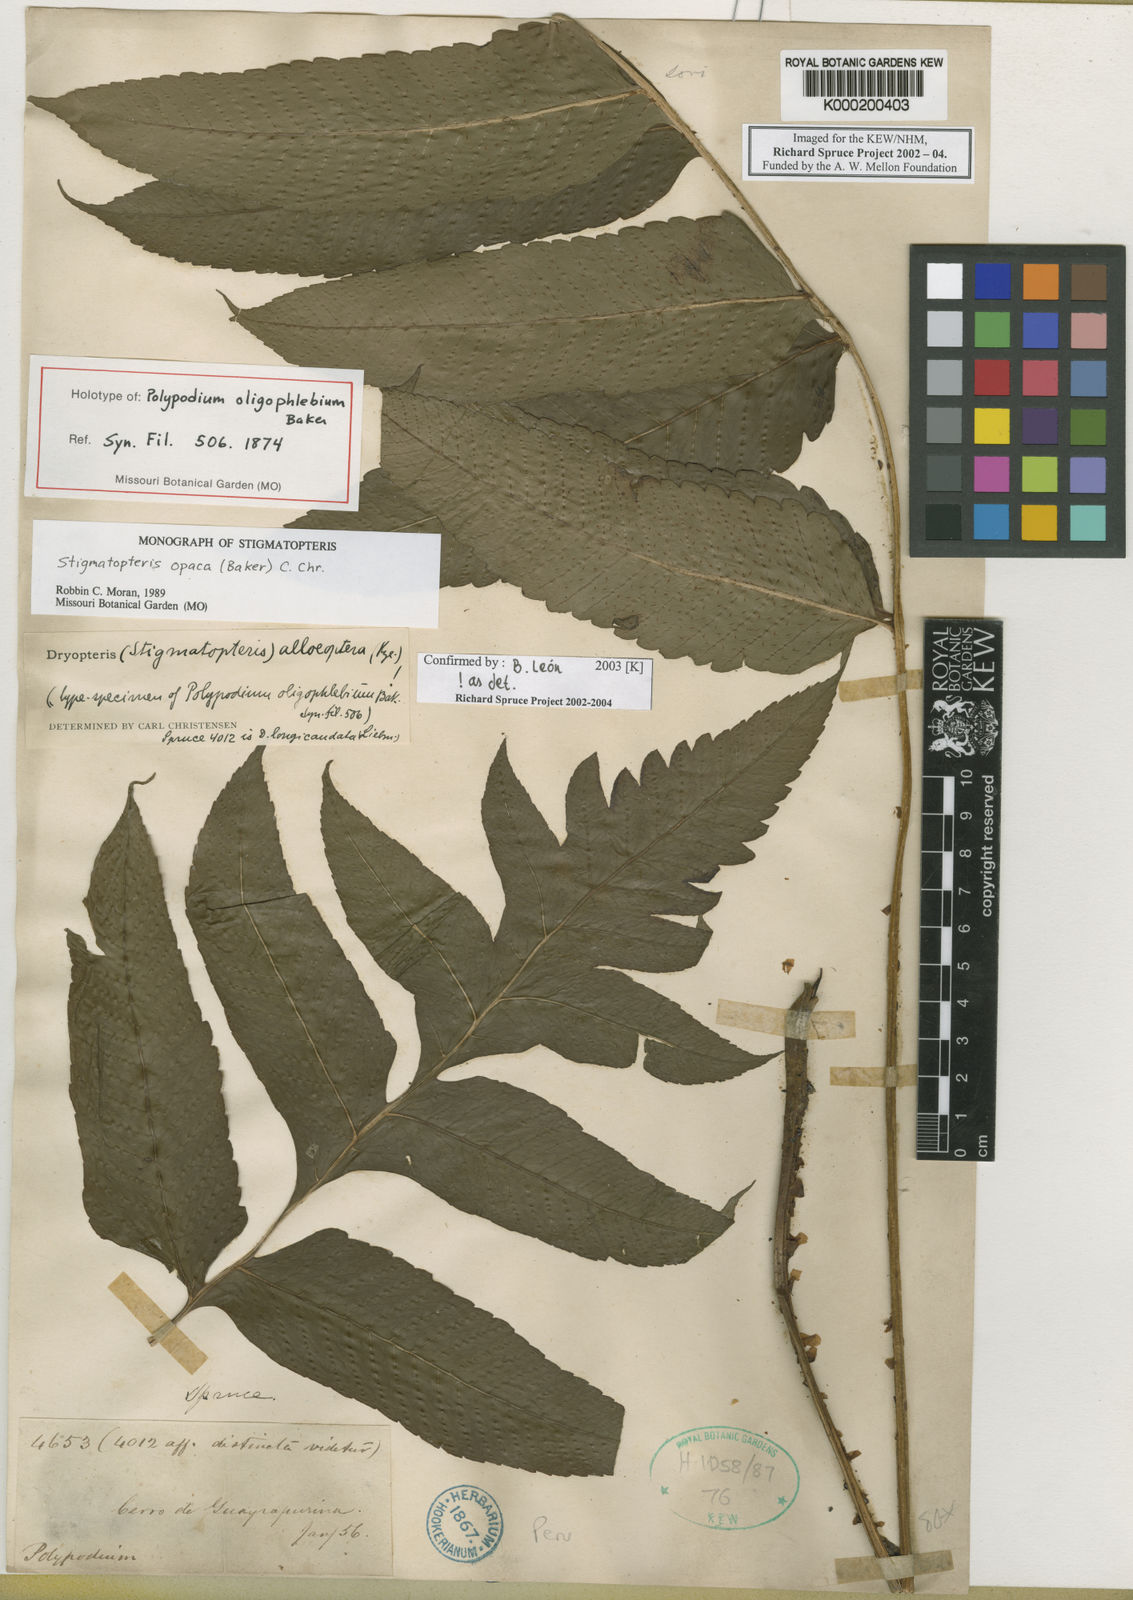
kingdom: Plantae
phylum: Tracheophyta
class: Polypodiopsida
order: Polypodiales
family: Dryopteridaceae
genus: Stigmatopteris
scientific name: Stigmatopteris alloeoptera
